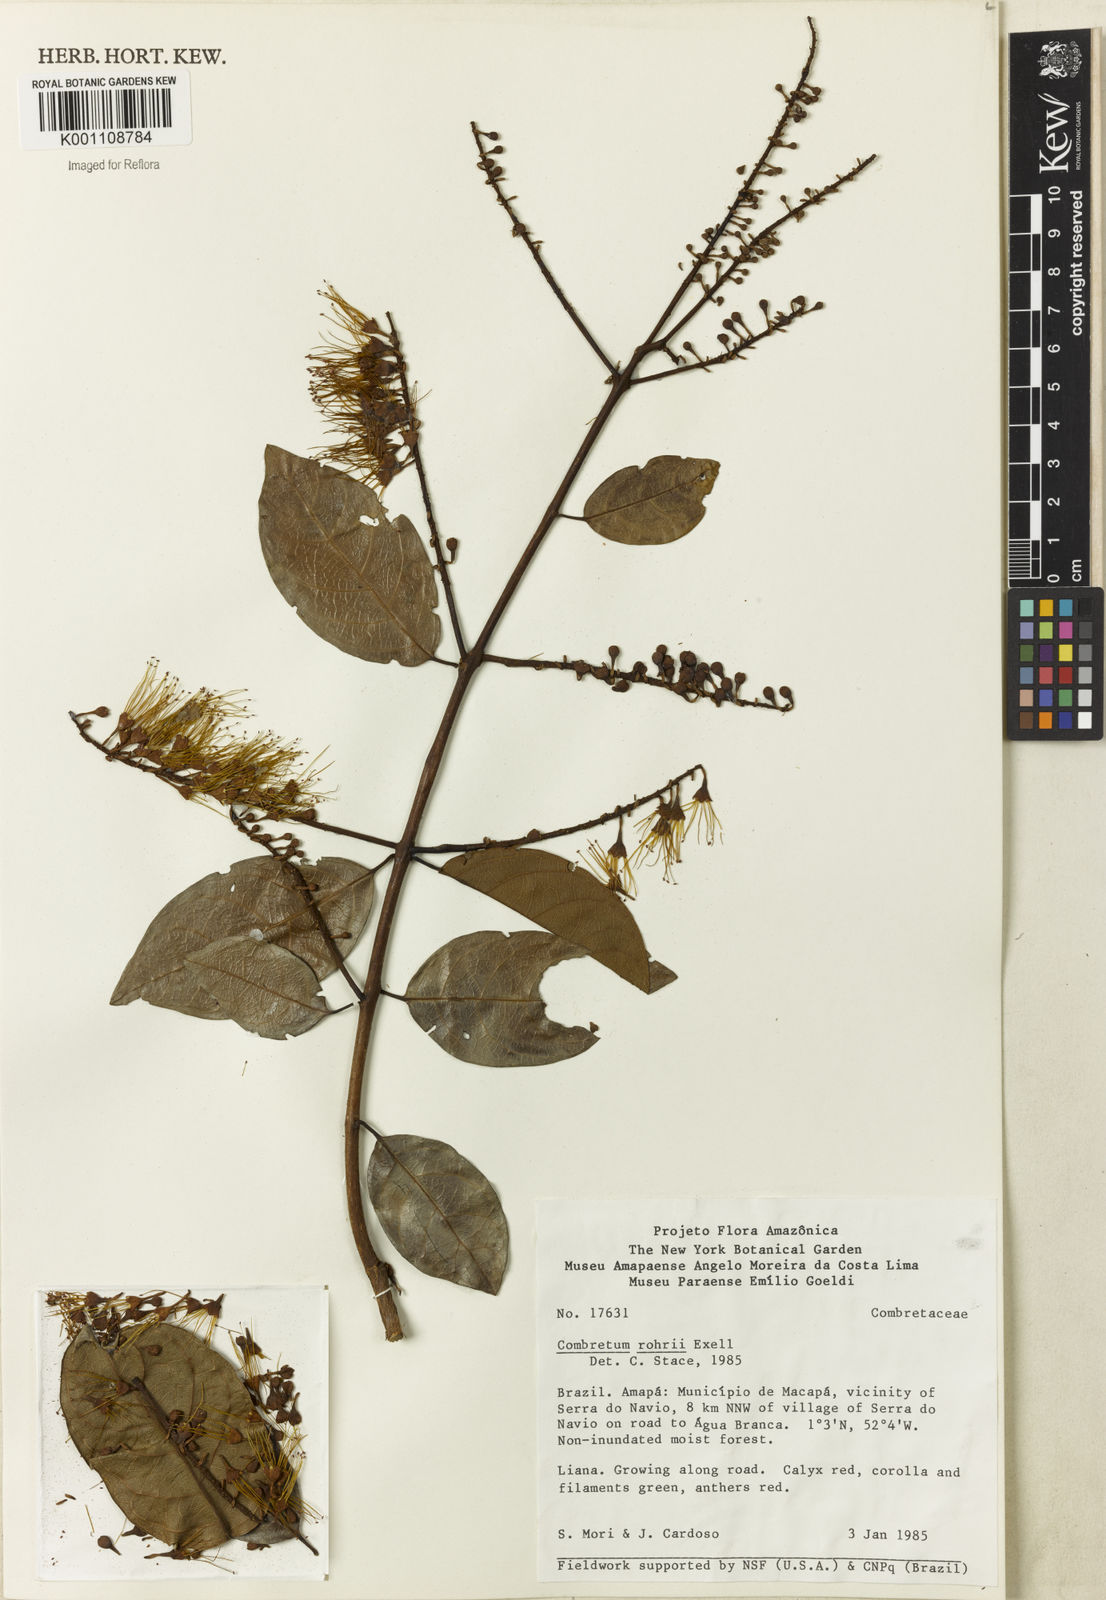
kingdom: Plantae
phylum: Tracheophyta
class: Magnoliopsida
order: Myrtales
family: Combretaceae
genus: Combretum
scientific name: Combretum rohrii
